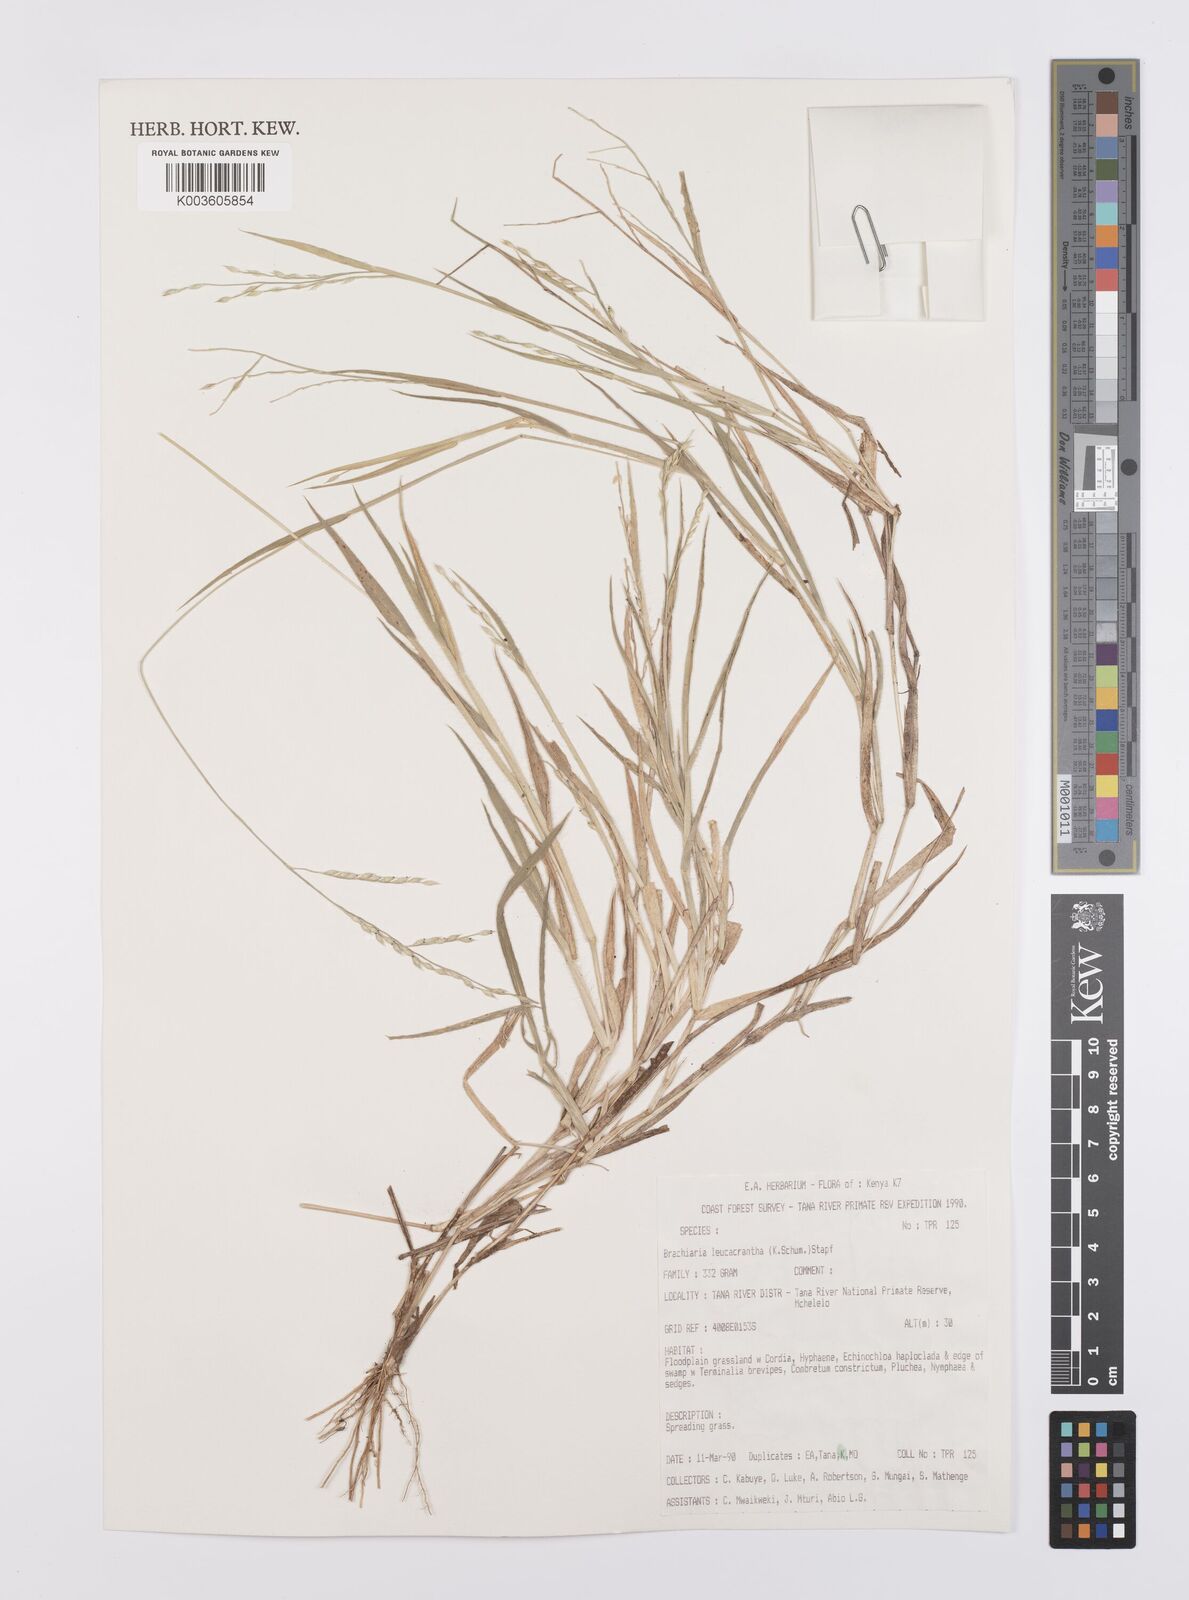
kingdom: Plantae
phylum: Tracheophyta
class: Liliopsida
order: Poales
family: Poaceae
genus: Urochloa
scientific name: Urochloa xantholeuca
